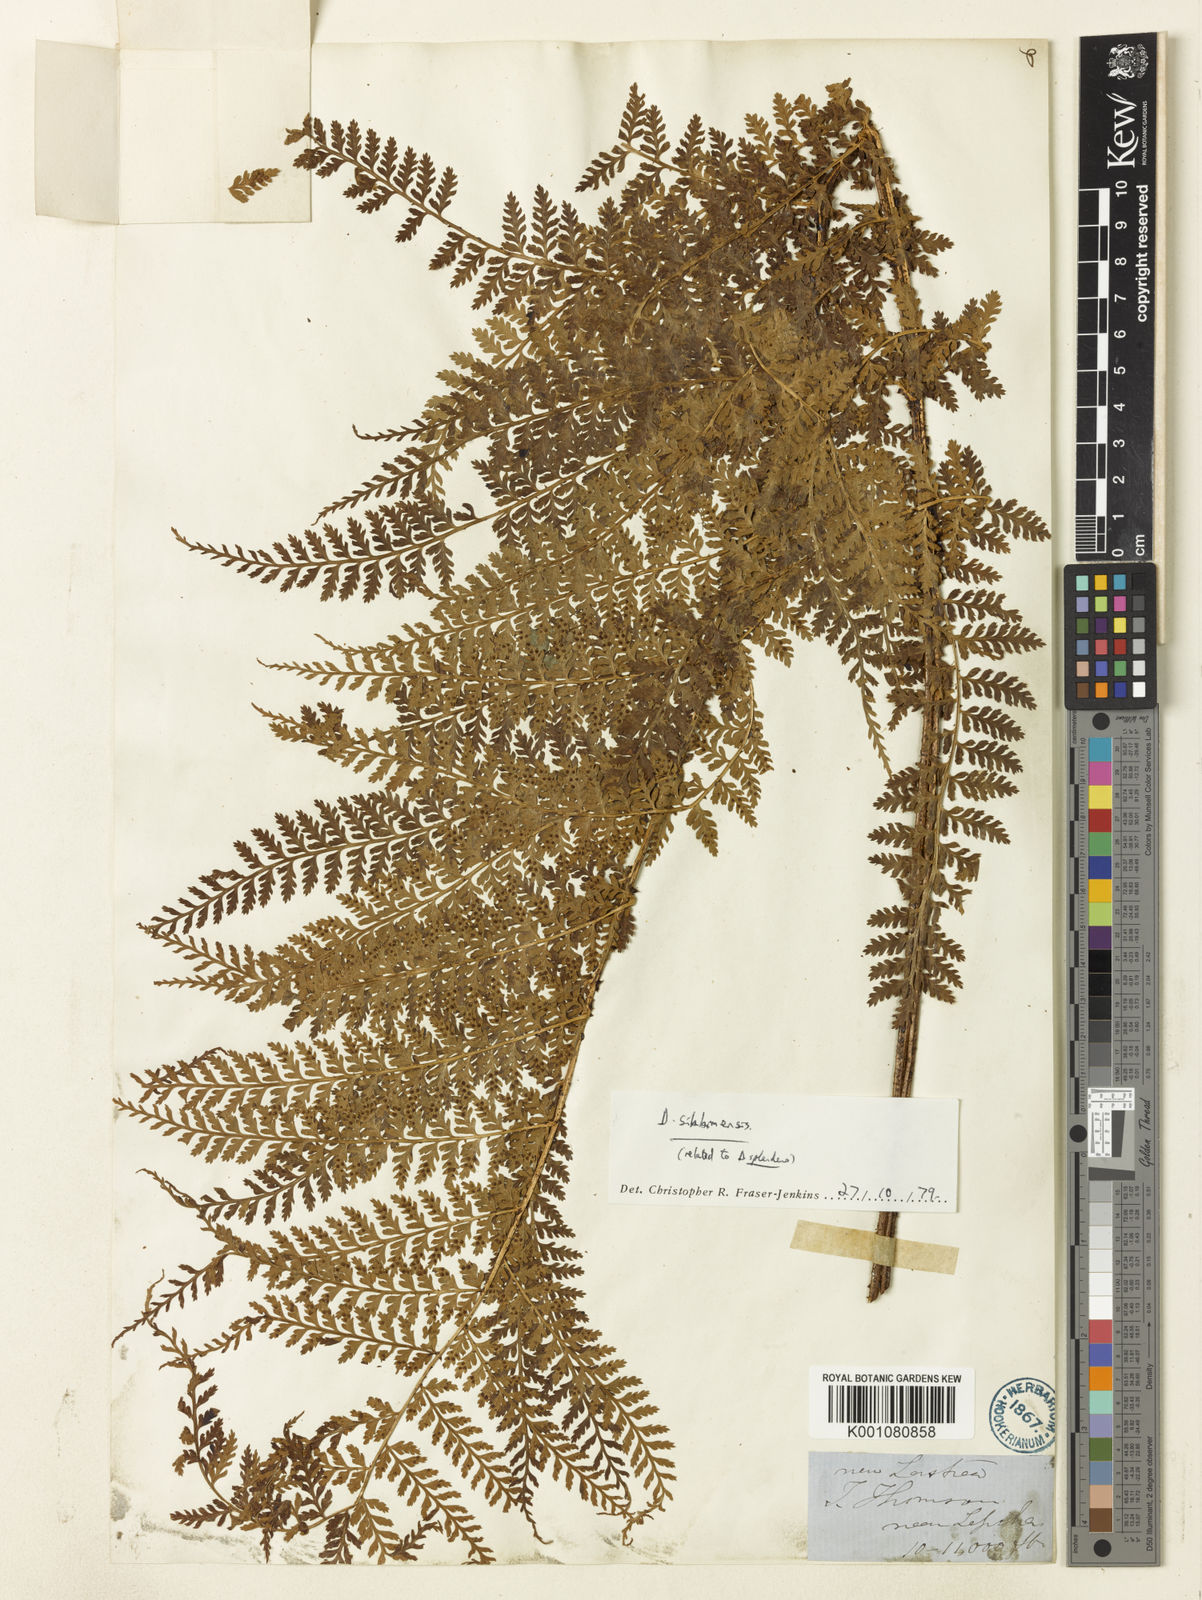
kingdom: Plantae
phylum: Tracheophyta
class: Polypodiopsida
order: Polypodiales
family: Dryopteridaceae
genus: Dryopteris
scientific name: Dryopteris sikkimensis
